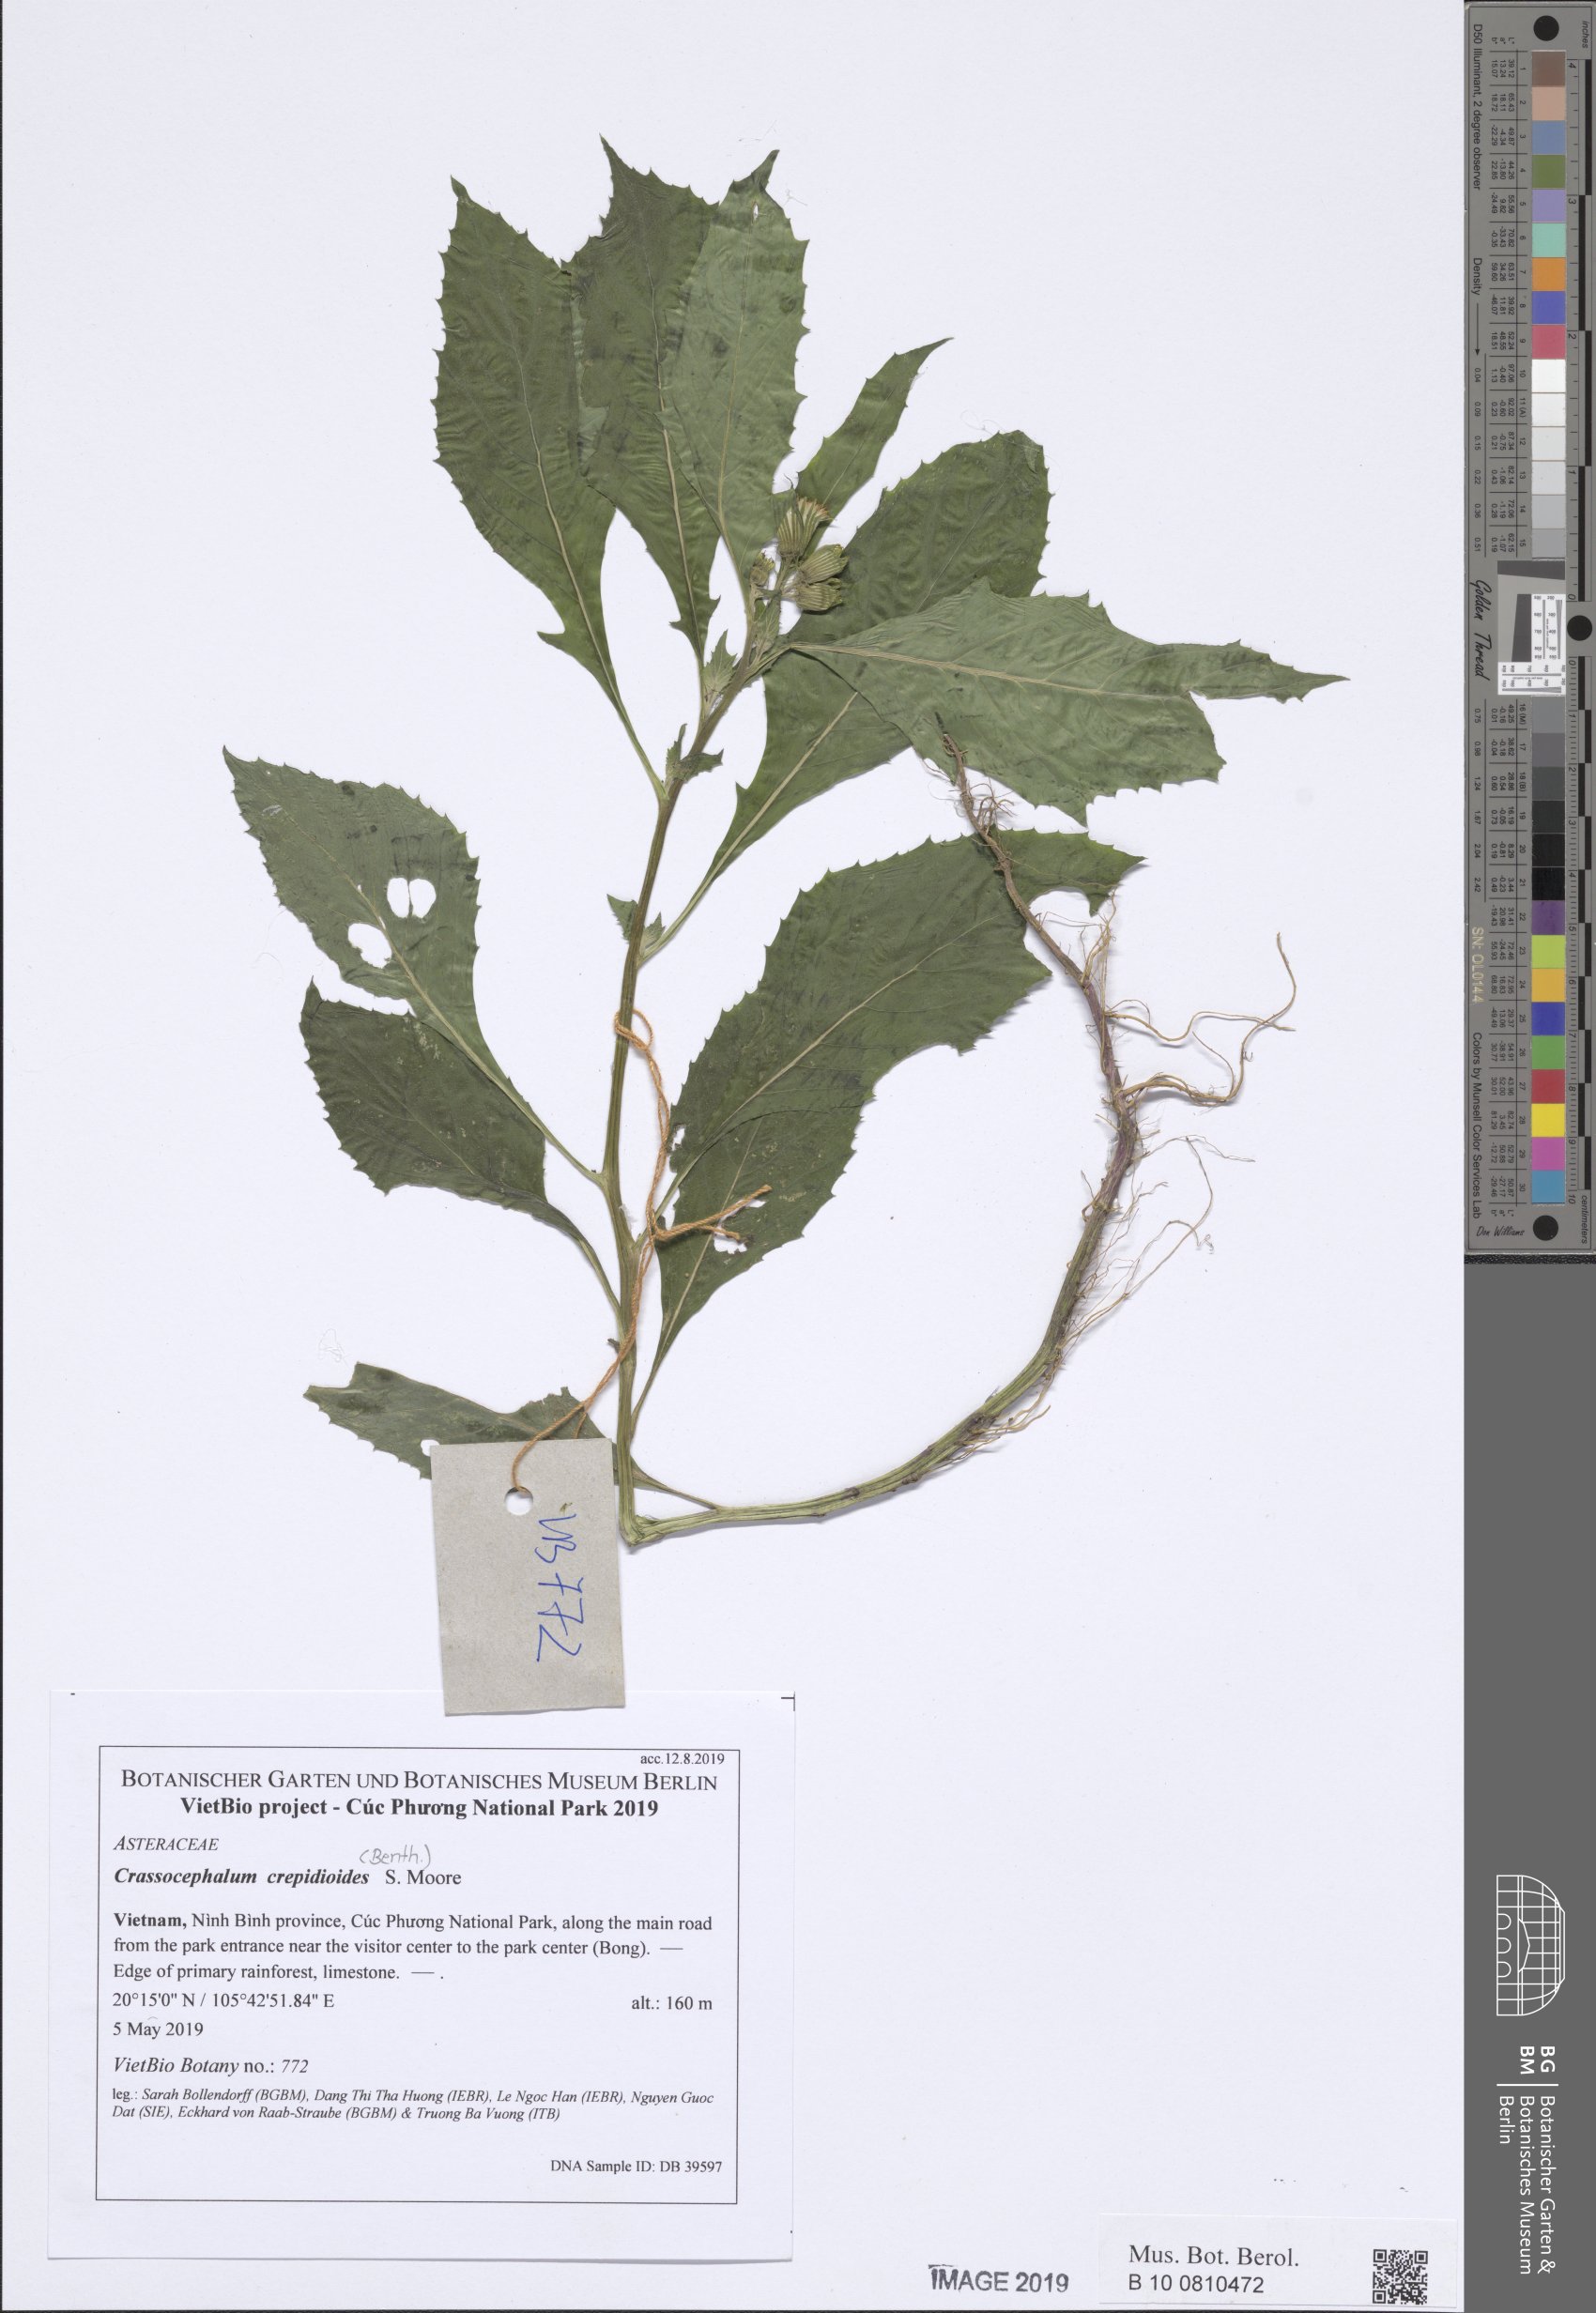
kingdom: Plantae
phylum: Tracheophyta
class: Magnoliopsida
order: Asterales
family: Asteraceae
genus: Crassocephalum
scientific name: Crassocephalum crepidioides
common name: Redflower ragleaf
